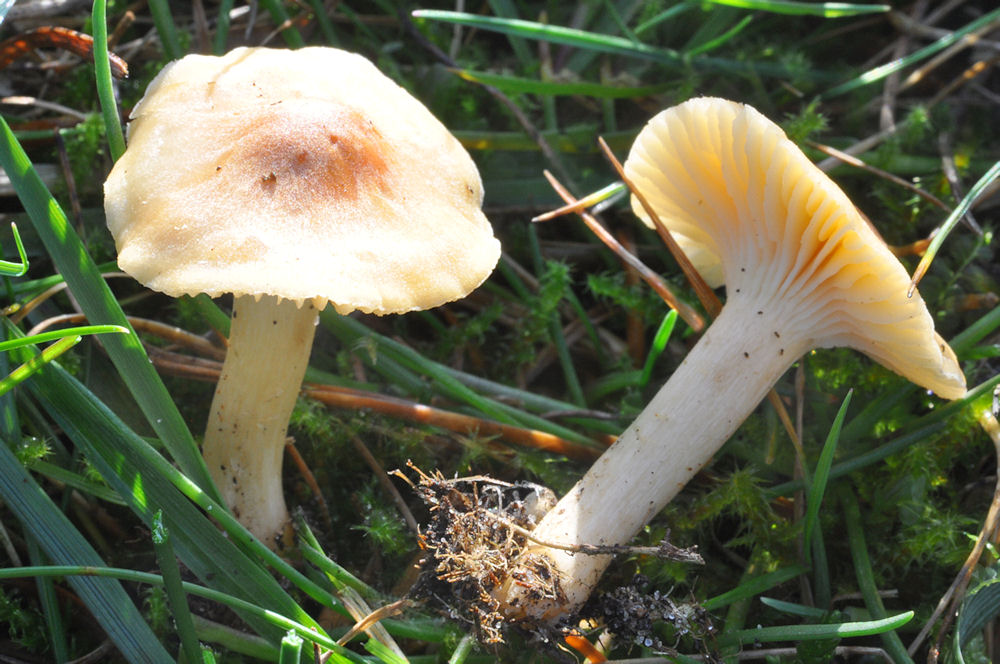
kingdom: Fungi
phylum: Basidiomycota
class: Agaricomycetes
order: Agaricales
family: Hygrophoraceae
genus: Cuphophyllus
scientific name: Cuphophyllus pratensis
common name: eng-vokshat
